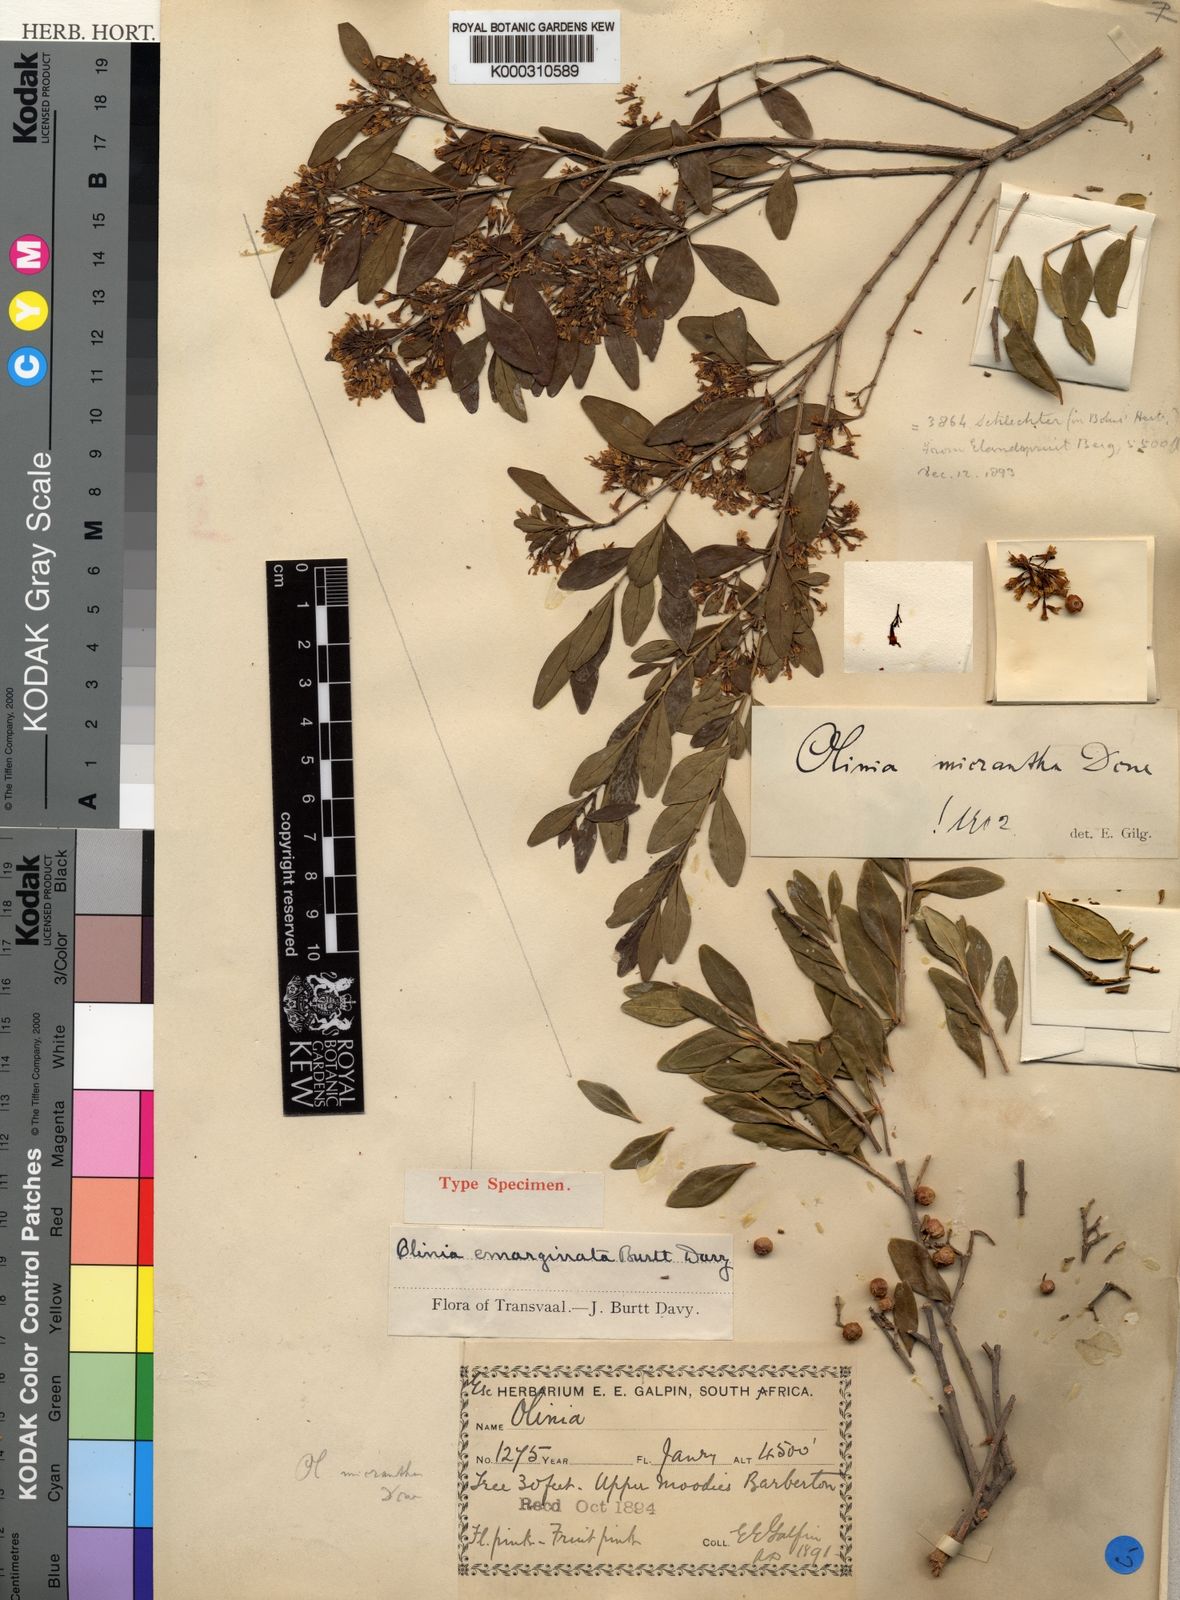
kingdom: Plantae
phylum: Tracheophyta
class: Magnoliopsida
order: Myrtales
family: Penaeaceae
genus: Olinia
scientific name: Olinia emarginata
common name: Mountain hard pear
